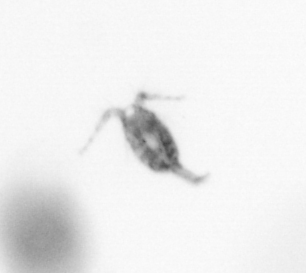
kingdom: Animalia
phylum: Arthropoda
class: Copepoda
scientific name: Copepoda
